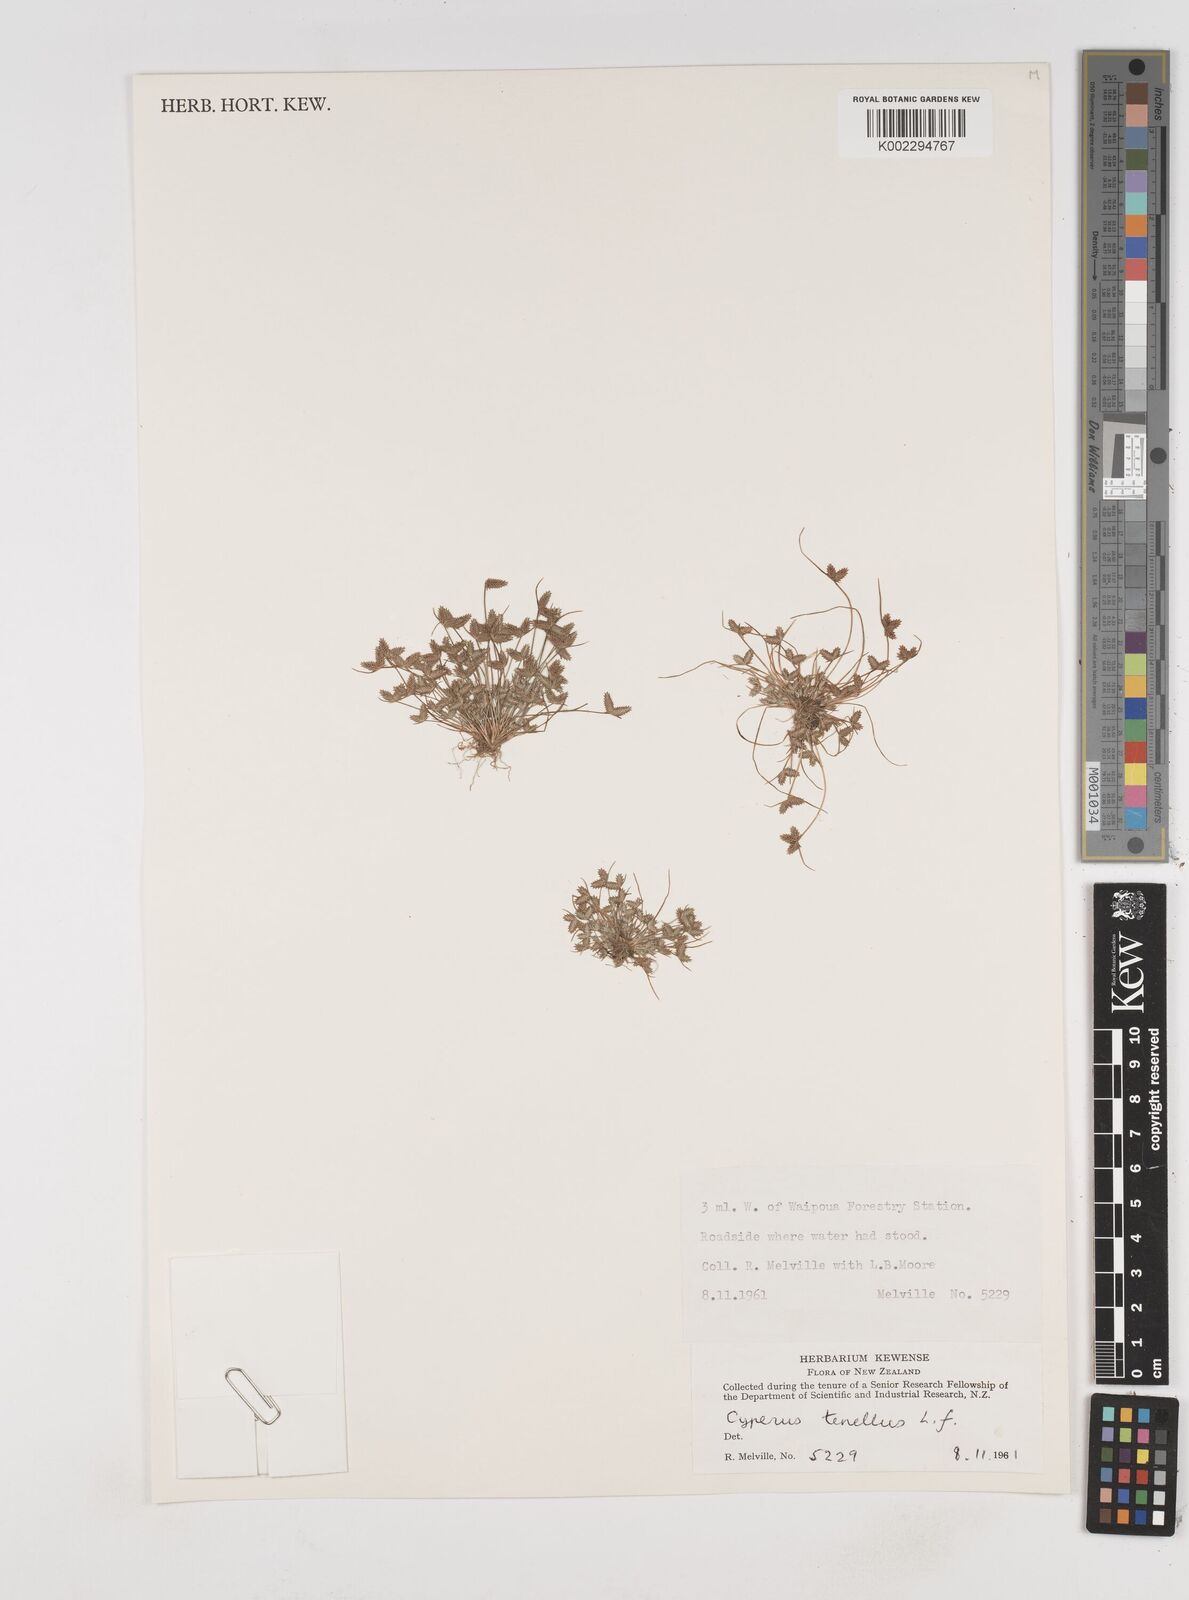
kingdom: Plantae
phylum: Tracheophyta
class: Liliopsida
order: Poales
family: Cyperaceae
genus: Cyperus
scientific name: Cyperus gracilis
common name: Slimjim flatsedge
